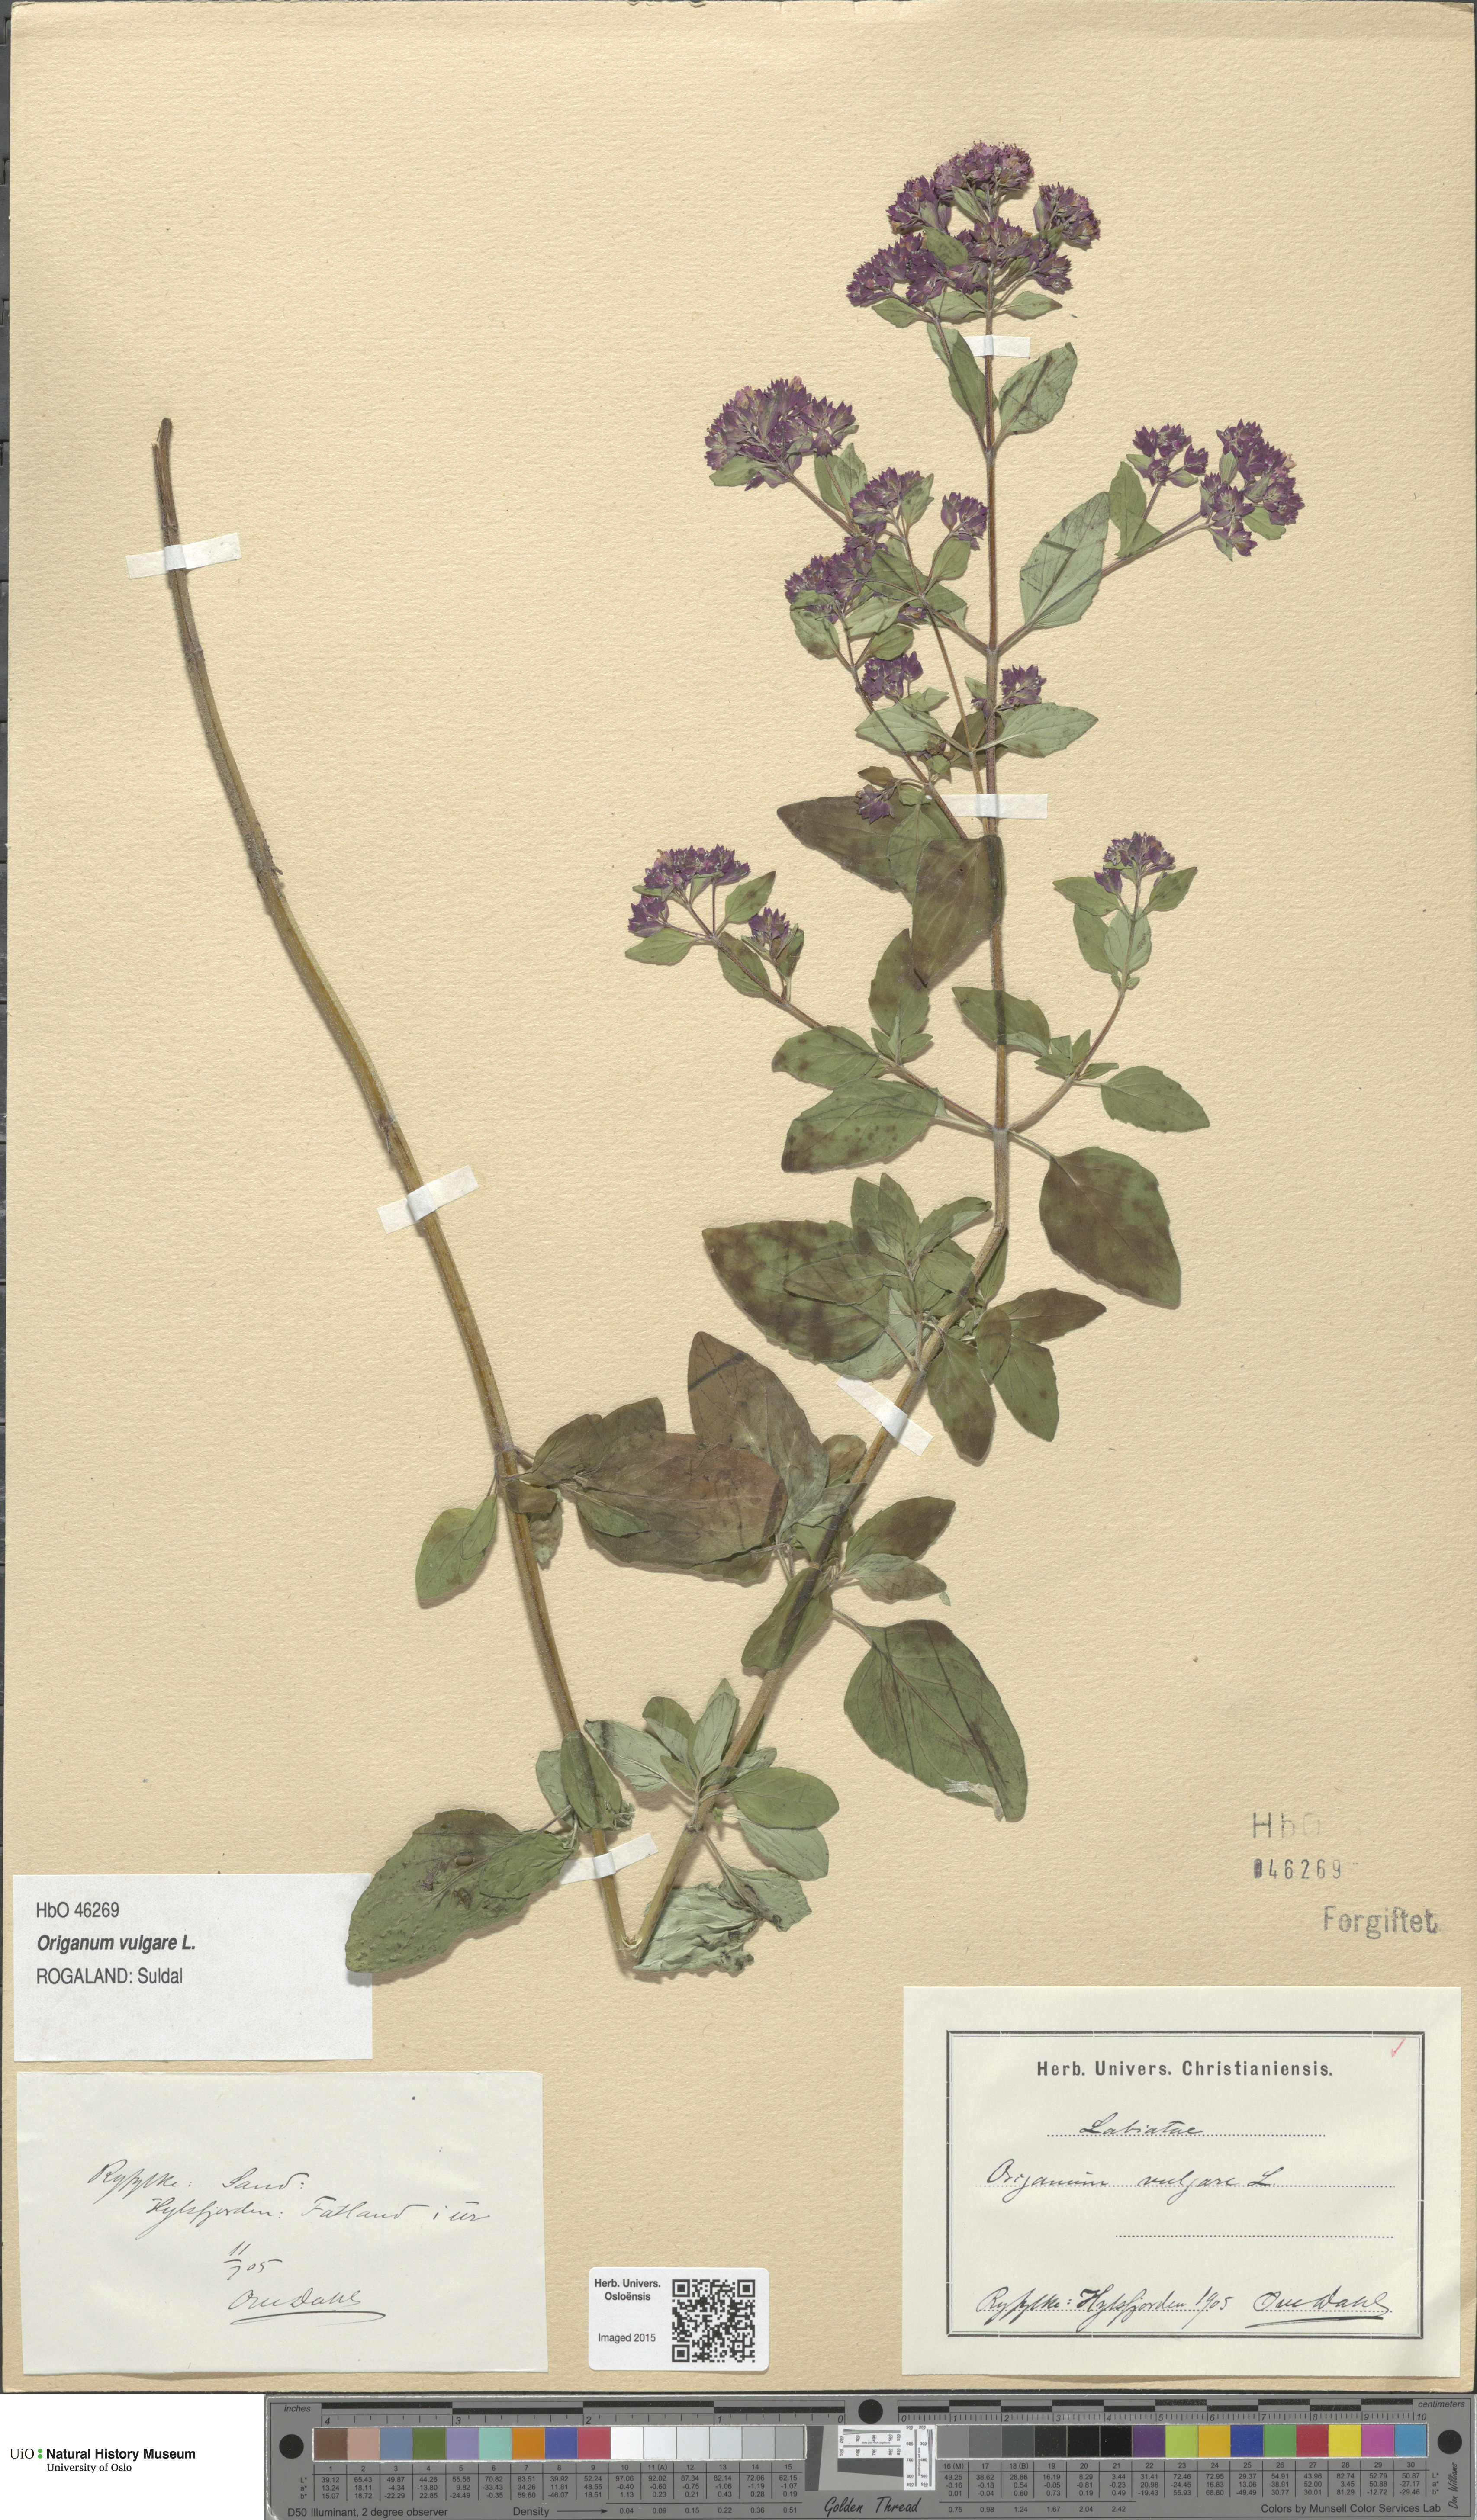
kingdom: Plantae
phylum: Tracheophyta
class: Magnoliopsida
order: Lamiales
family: Lamiaceae
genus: Origanum
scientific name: Origanum vulgare
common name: Wild marjoram
